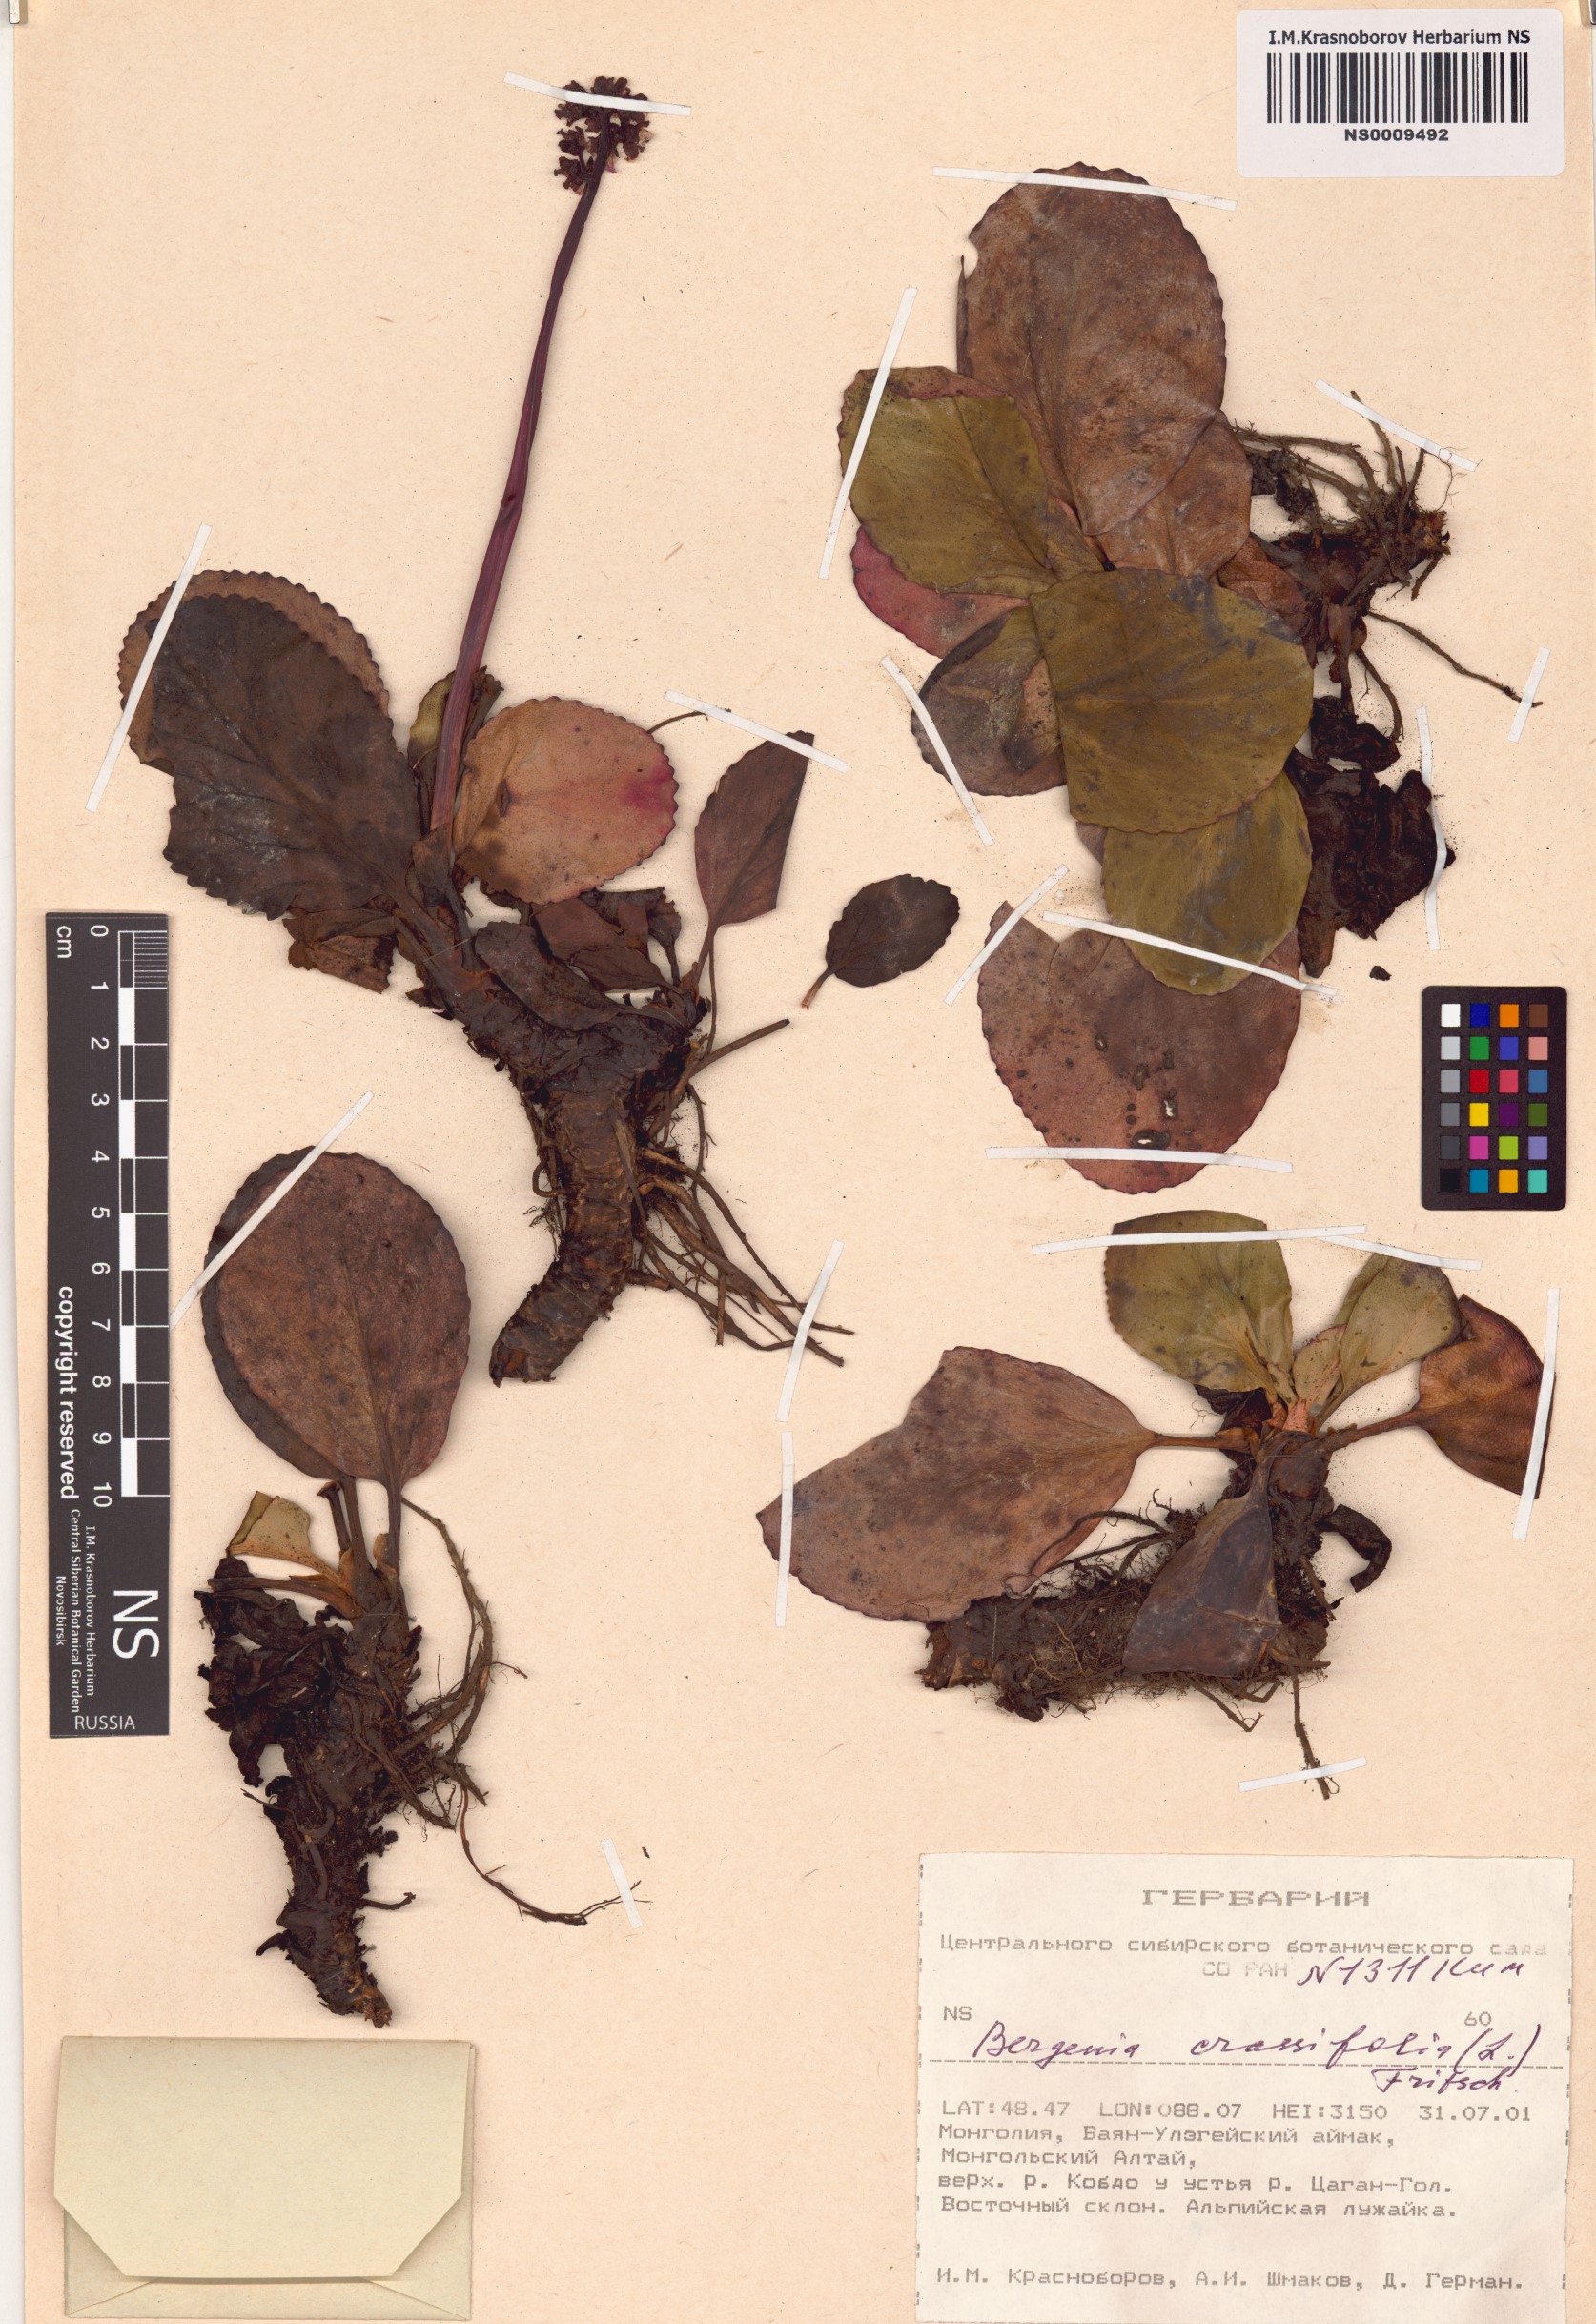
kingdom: Plantae
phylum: Tracheophyta
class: Magnoliopsida
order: Saxifragales
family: Saxifragaceae
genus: Bergenia
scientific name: Bergenia crassifolia
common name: Elephant-ears
